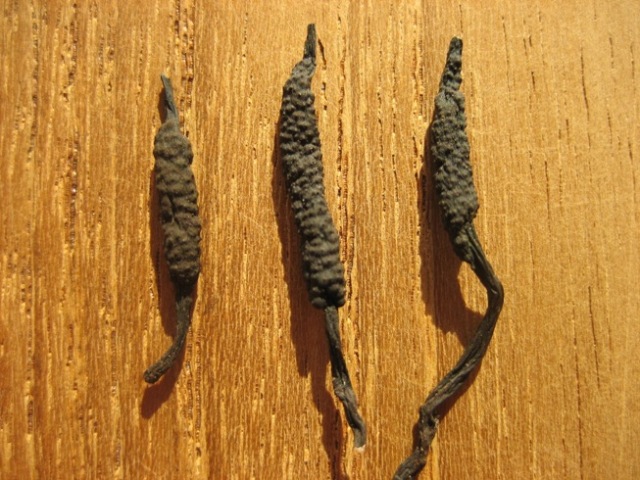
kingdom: Fungi
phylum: Ascomycota
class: Sordariomycetes
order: Xylariales
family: Xylariaceae
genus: Xylaria
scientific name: Xylaria hypoxylon
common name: grenet stødsvamp
